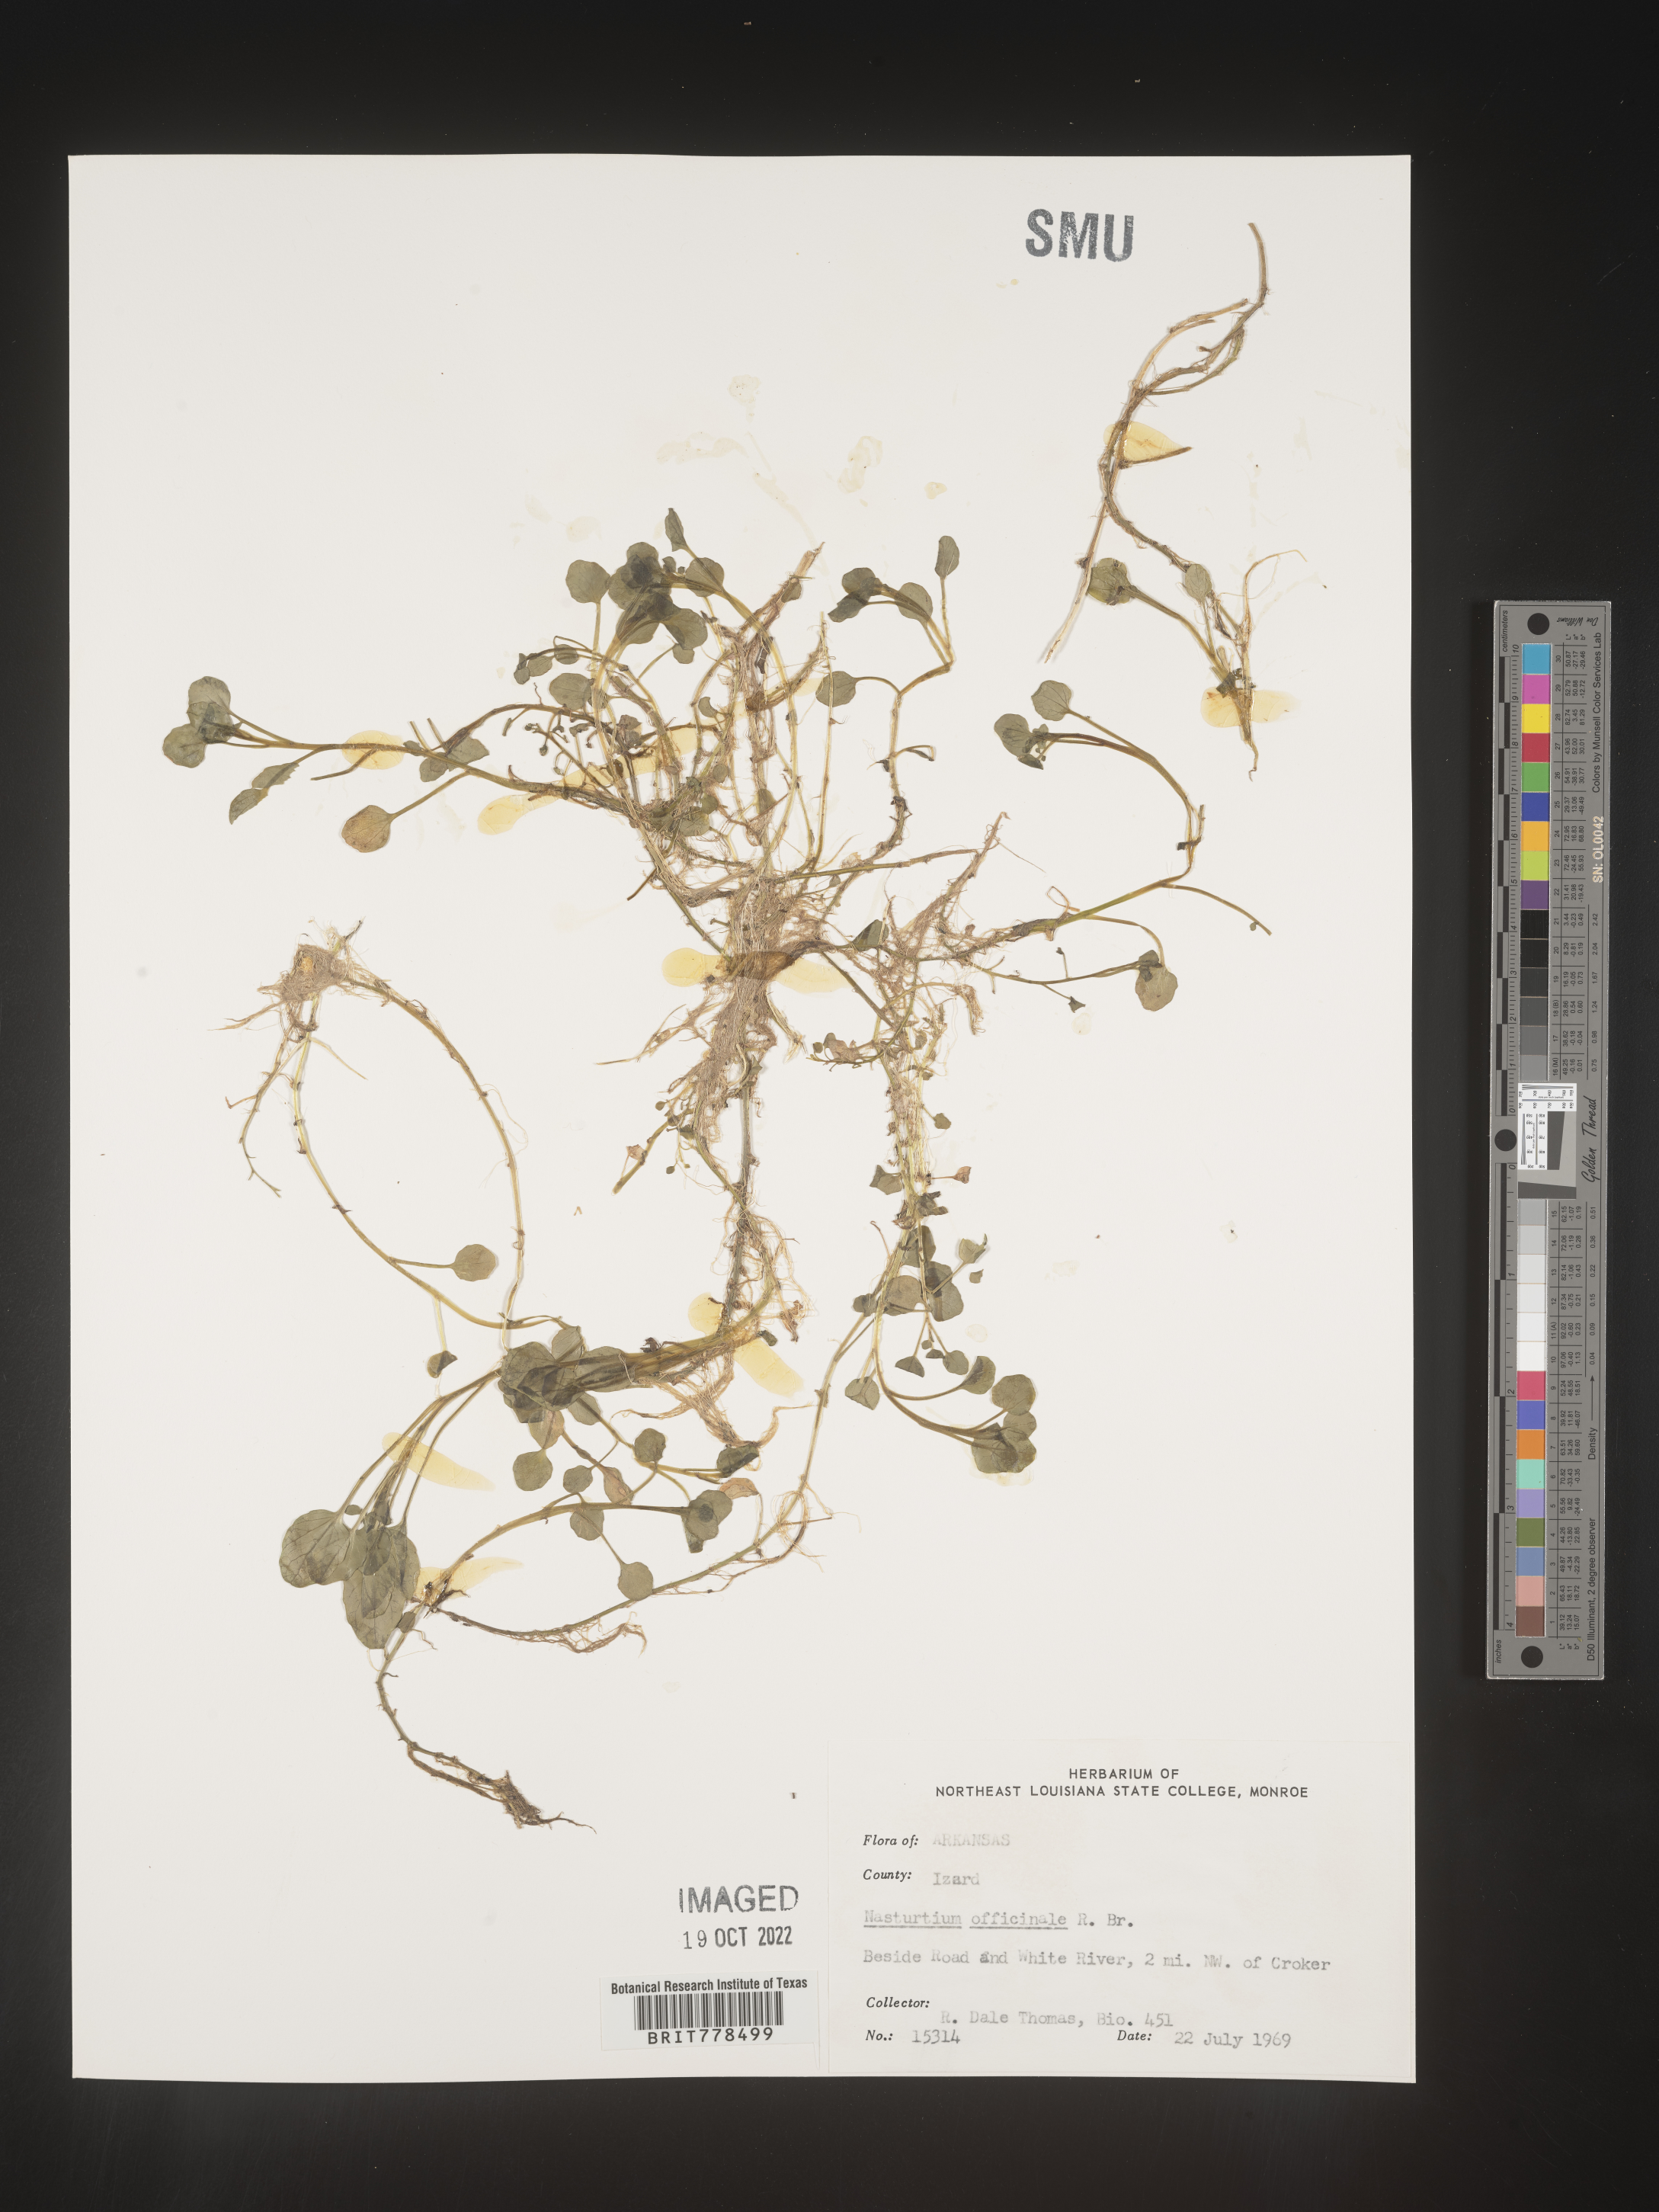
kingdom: Plantae
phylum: Tracheophyta
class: Magnoliopsida
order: Brassicales
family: Brassicaceae
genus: Nasturtium
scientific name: Nasturtium officinale
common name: Watercress
